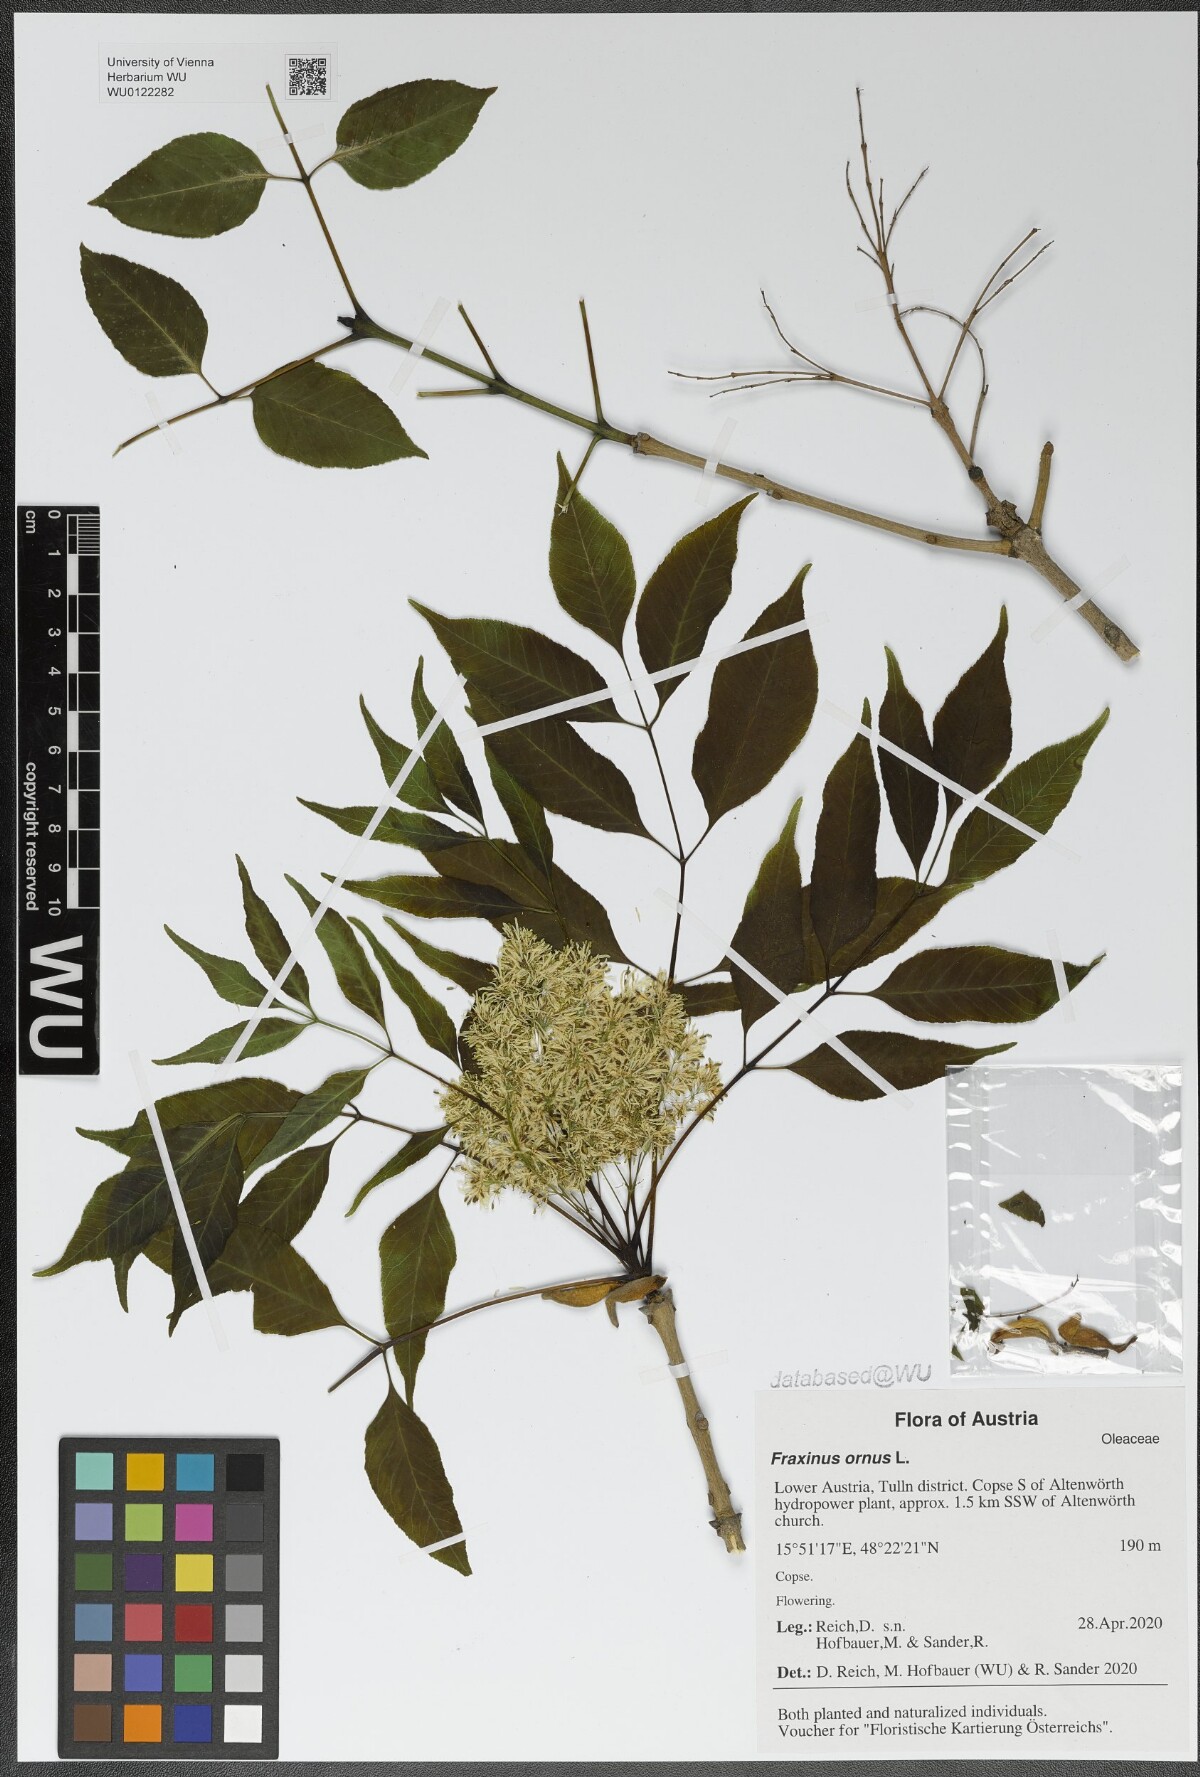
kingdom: Plantae
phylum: Tracheophyta
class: Magnoliopsida
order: Lamiales
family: Oleaceae
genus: Fraxinus
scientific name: Fraxinus ornus
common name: Manna ash
